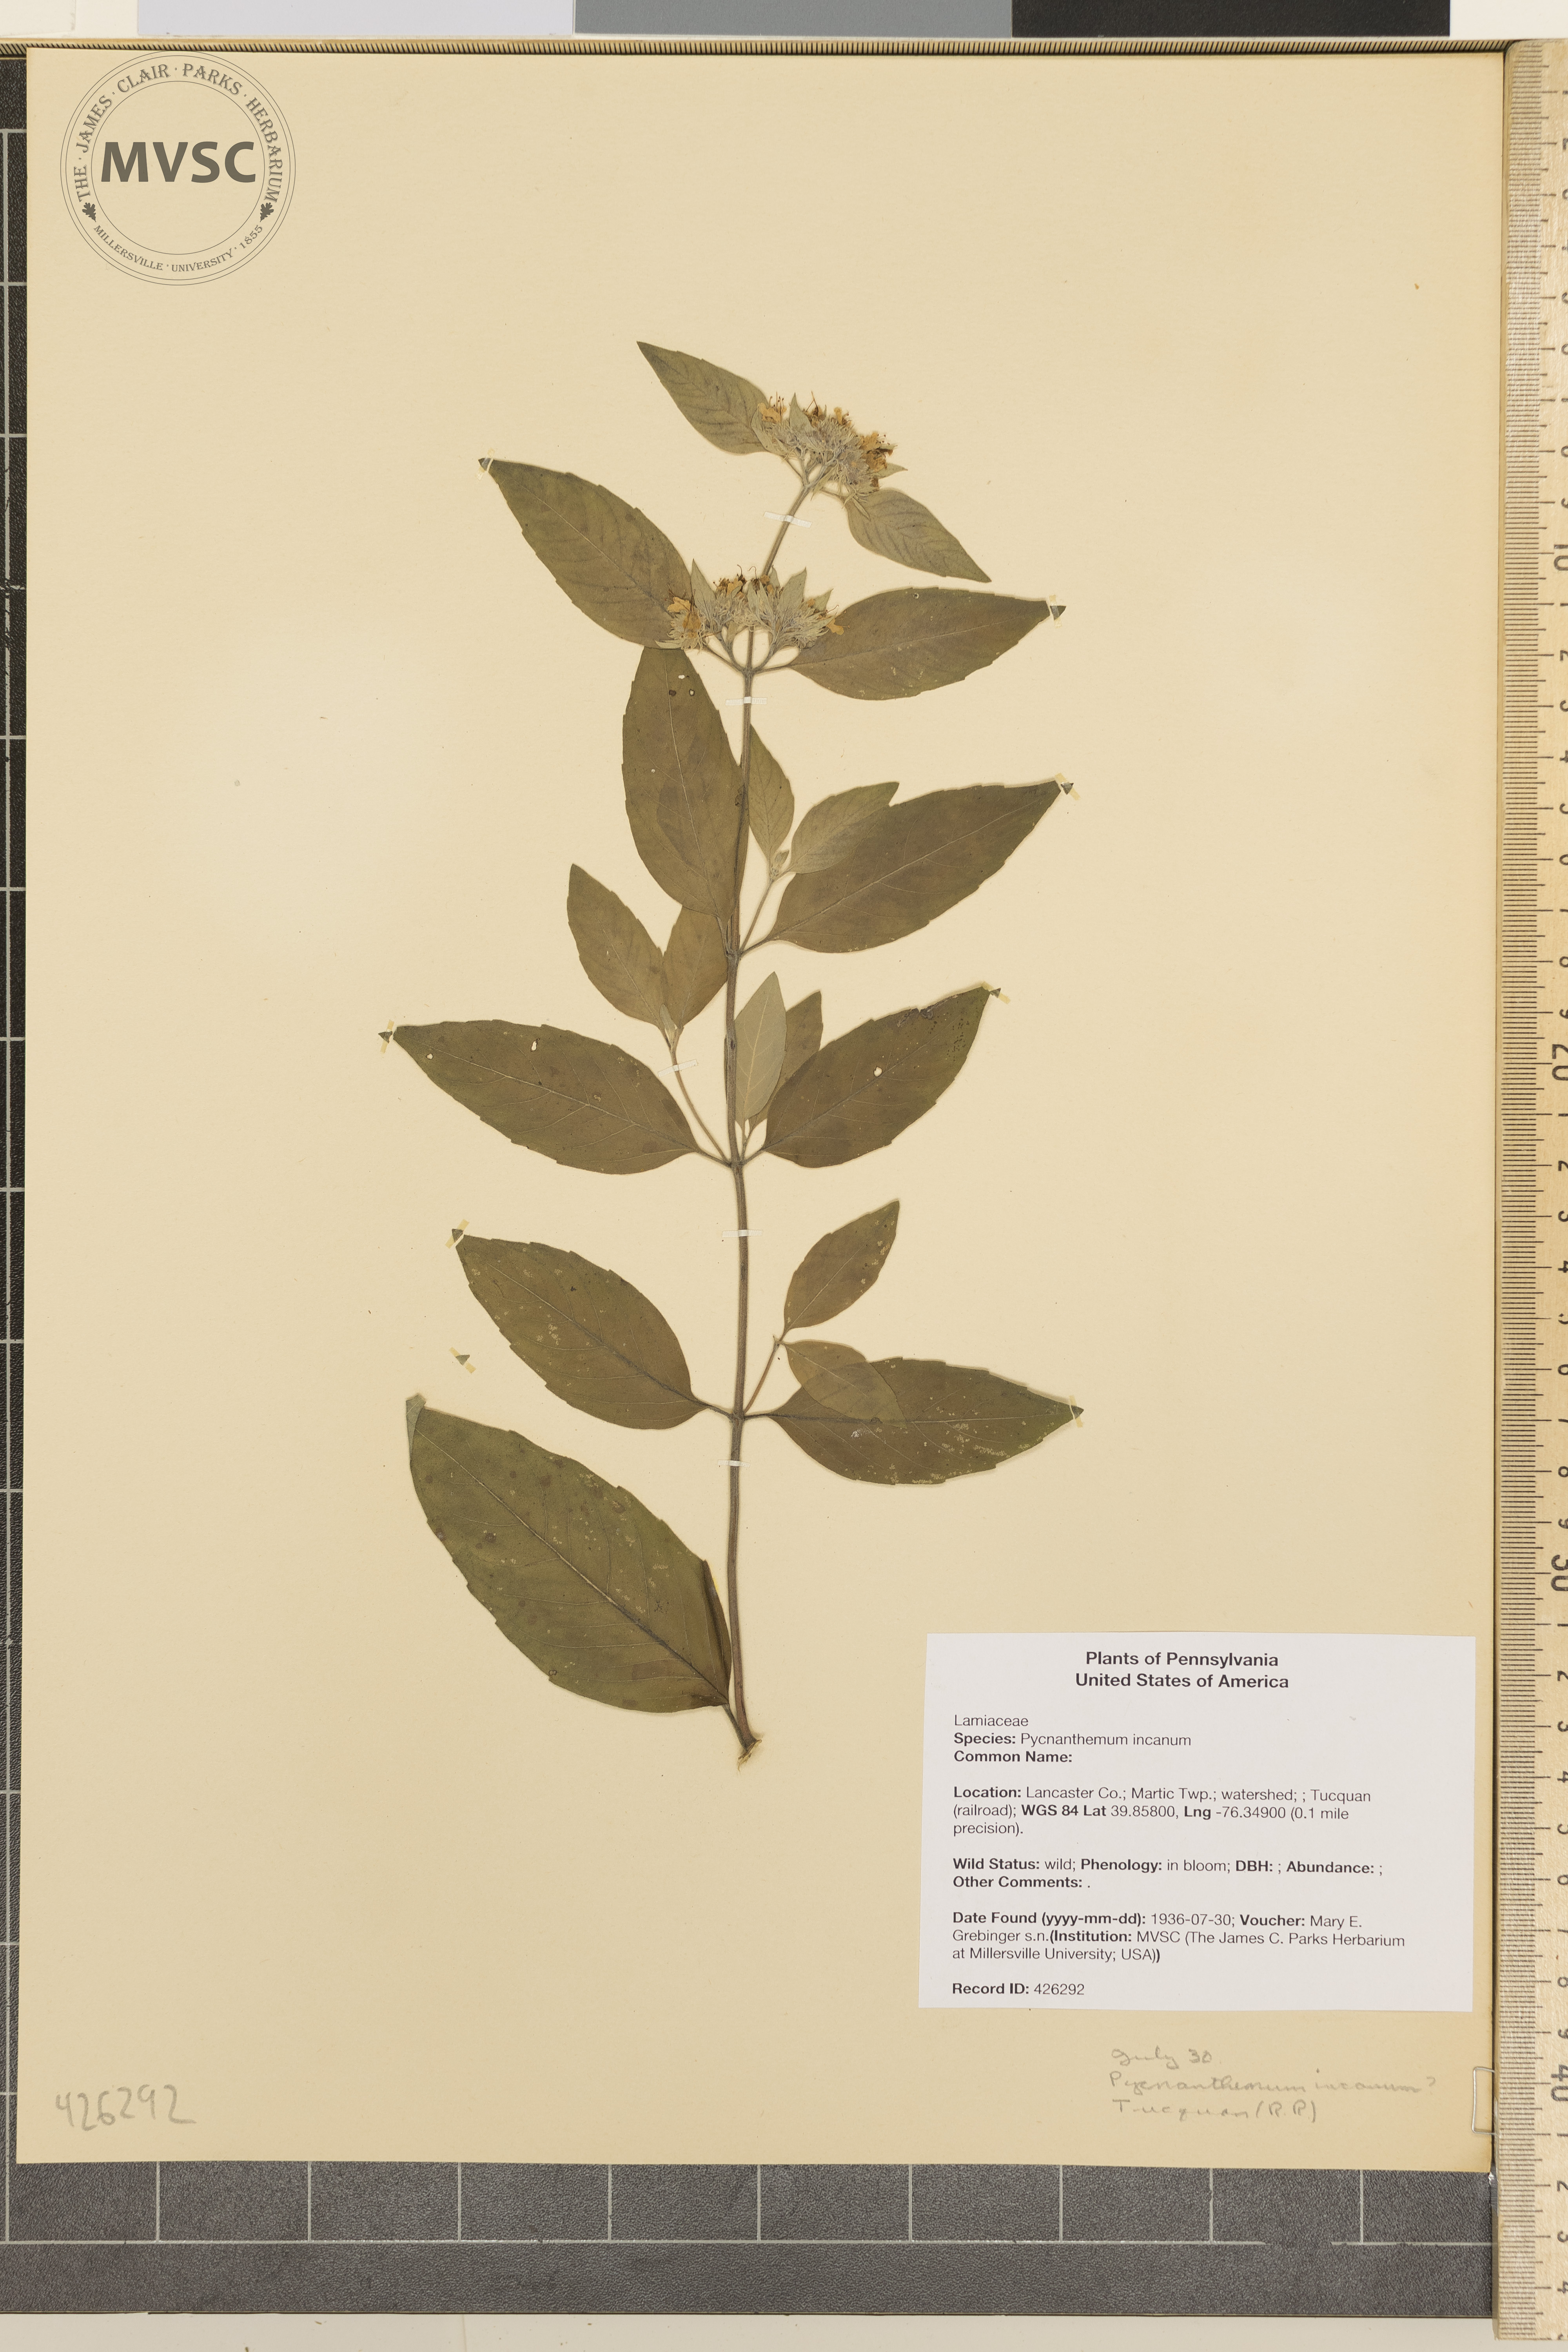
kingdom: Plantae
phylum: Tracheophyta
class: Magnoliopsida
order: Lamiales
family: Lamiaceae
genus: Pycnanthemum
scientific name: Pycnanthemum incanum
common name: Hoary mountain-mint
